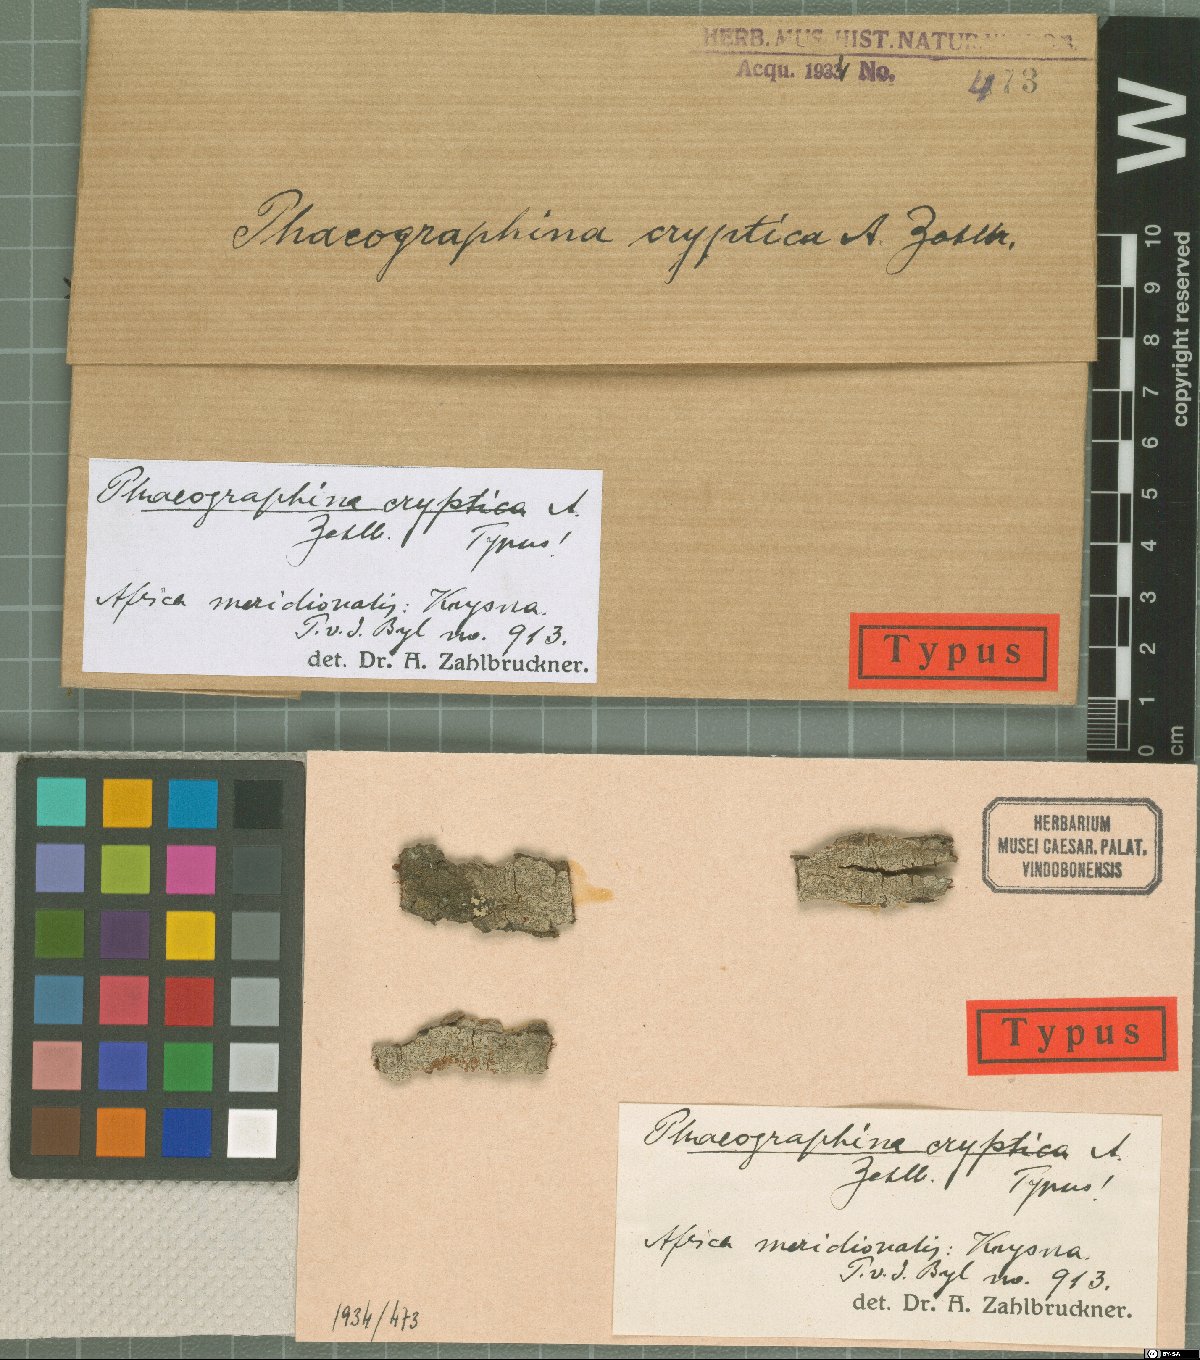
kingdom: Fungi
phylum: Ascomycota
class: Lecanoromycetes
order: Ostropales
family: Graphidaceae
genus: Phaeographina
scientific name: Phaeographina
